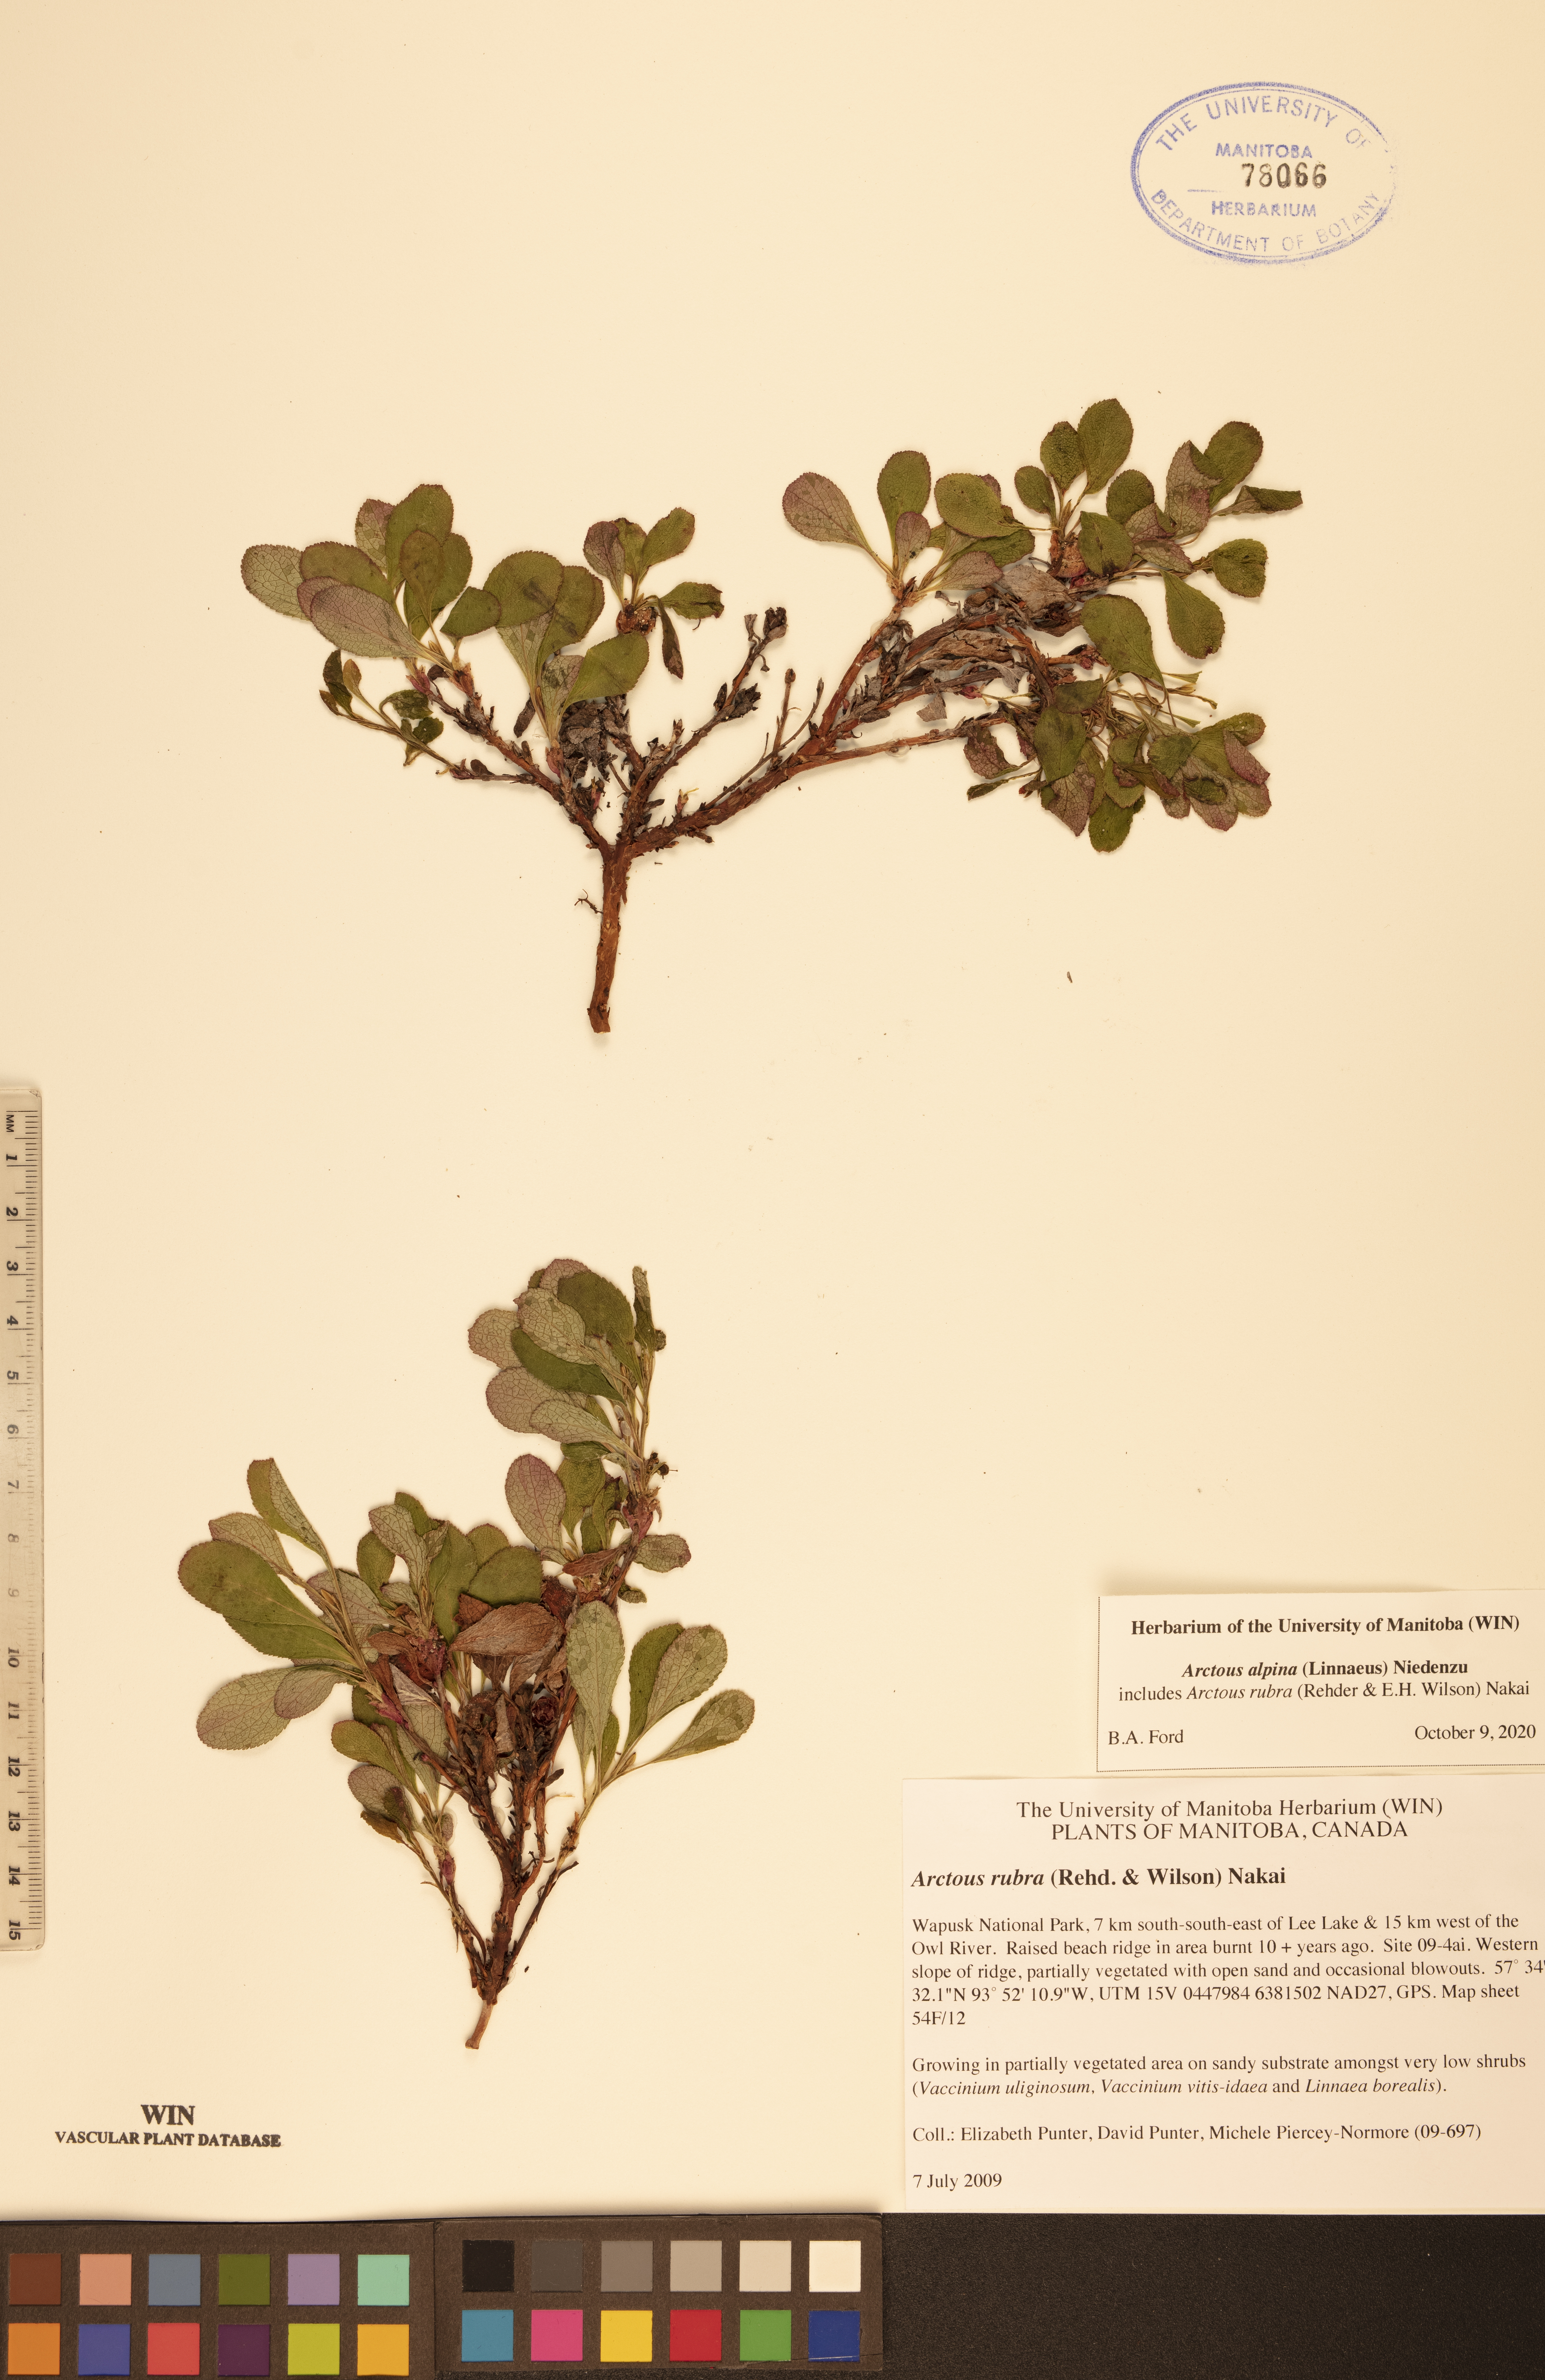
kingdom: Plantae
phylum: Tracheophyta
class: Magnoliopsida
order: Ericales
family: Ericaceae
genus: Arctostaphylos
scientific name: Arctostaphylos alpinus
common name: Alpine bearberry
